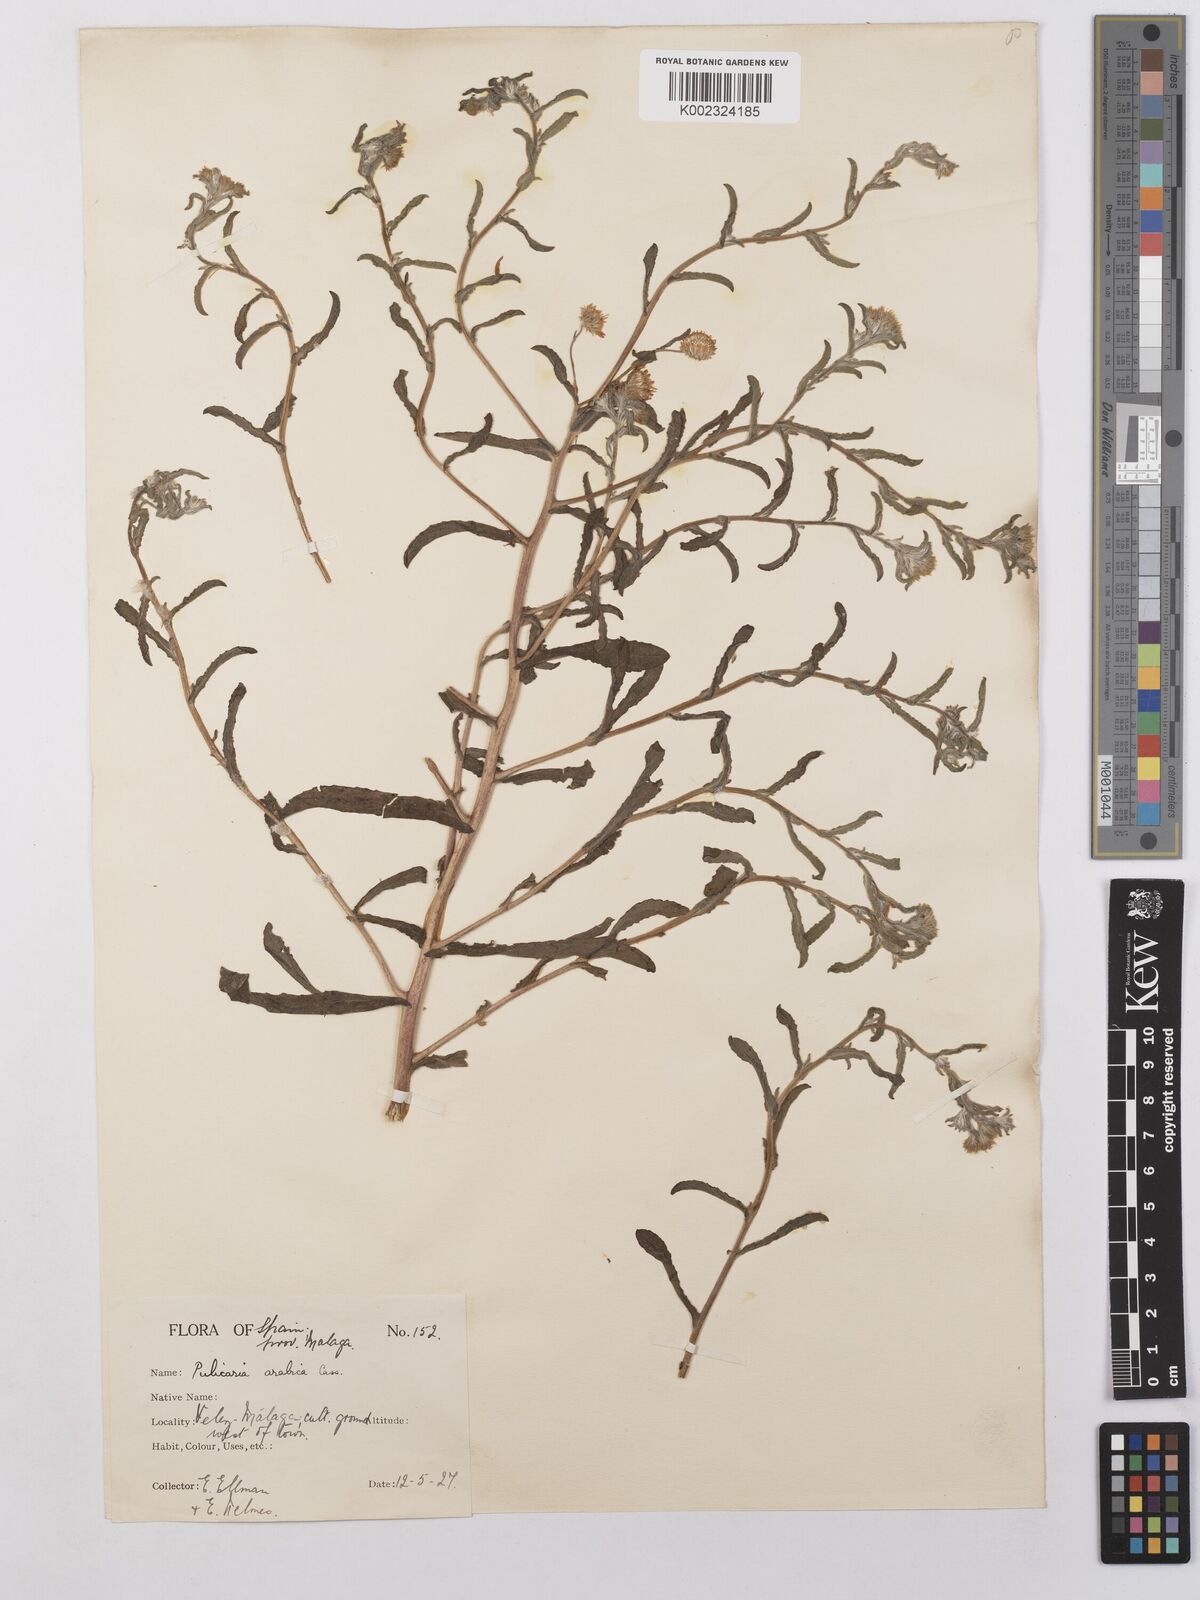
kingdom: Plantae
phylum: Tracheophyta
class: Magnoliopsida
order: Asterales
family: Asteraceae
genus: Pulicaria
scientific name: Pulicaria arabica
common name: Ladies' false fleabane
